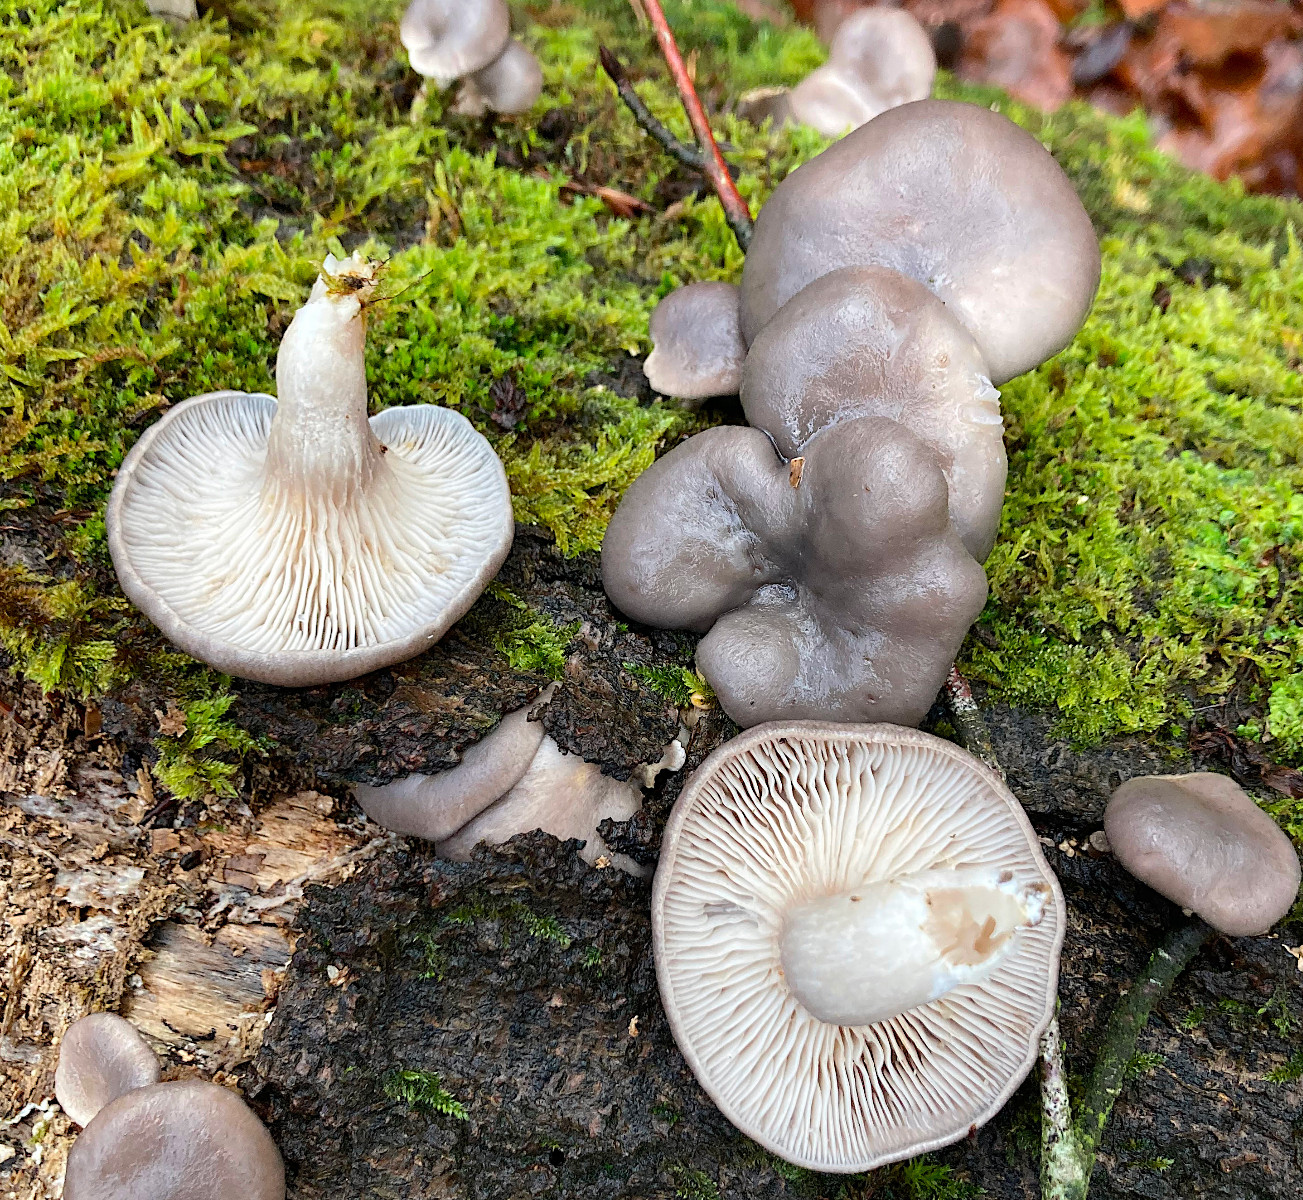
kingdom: Fungi
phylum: Basidiomycota
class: Agaricomycetes
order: Agaricales
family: Pleurotaceae
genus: Pleurotus
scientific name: Pleurotus ostreatus
